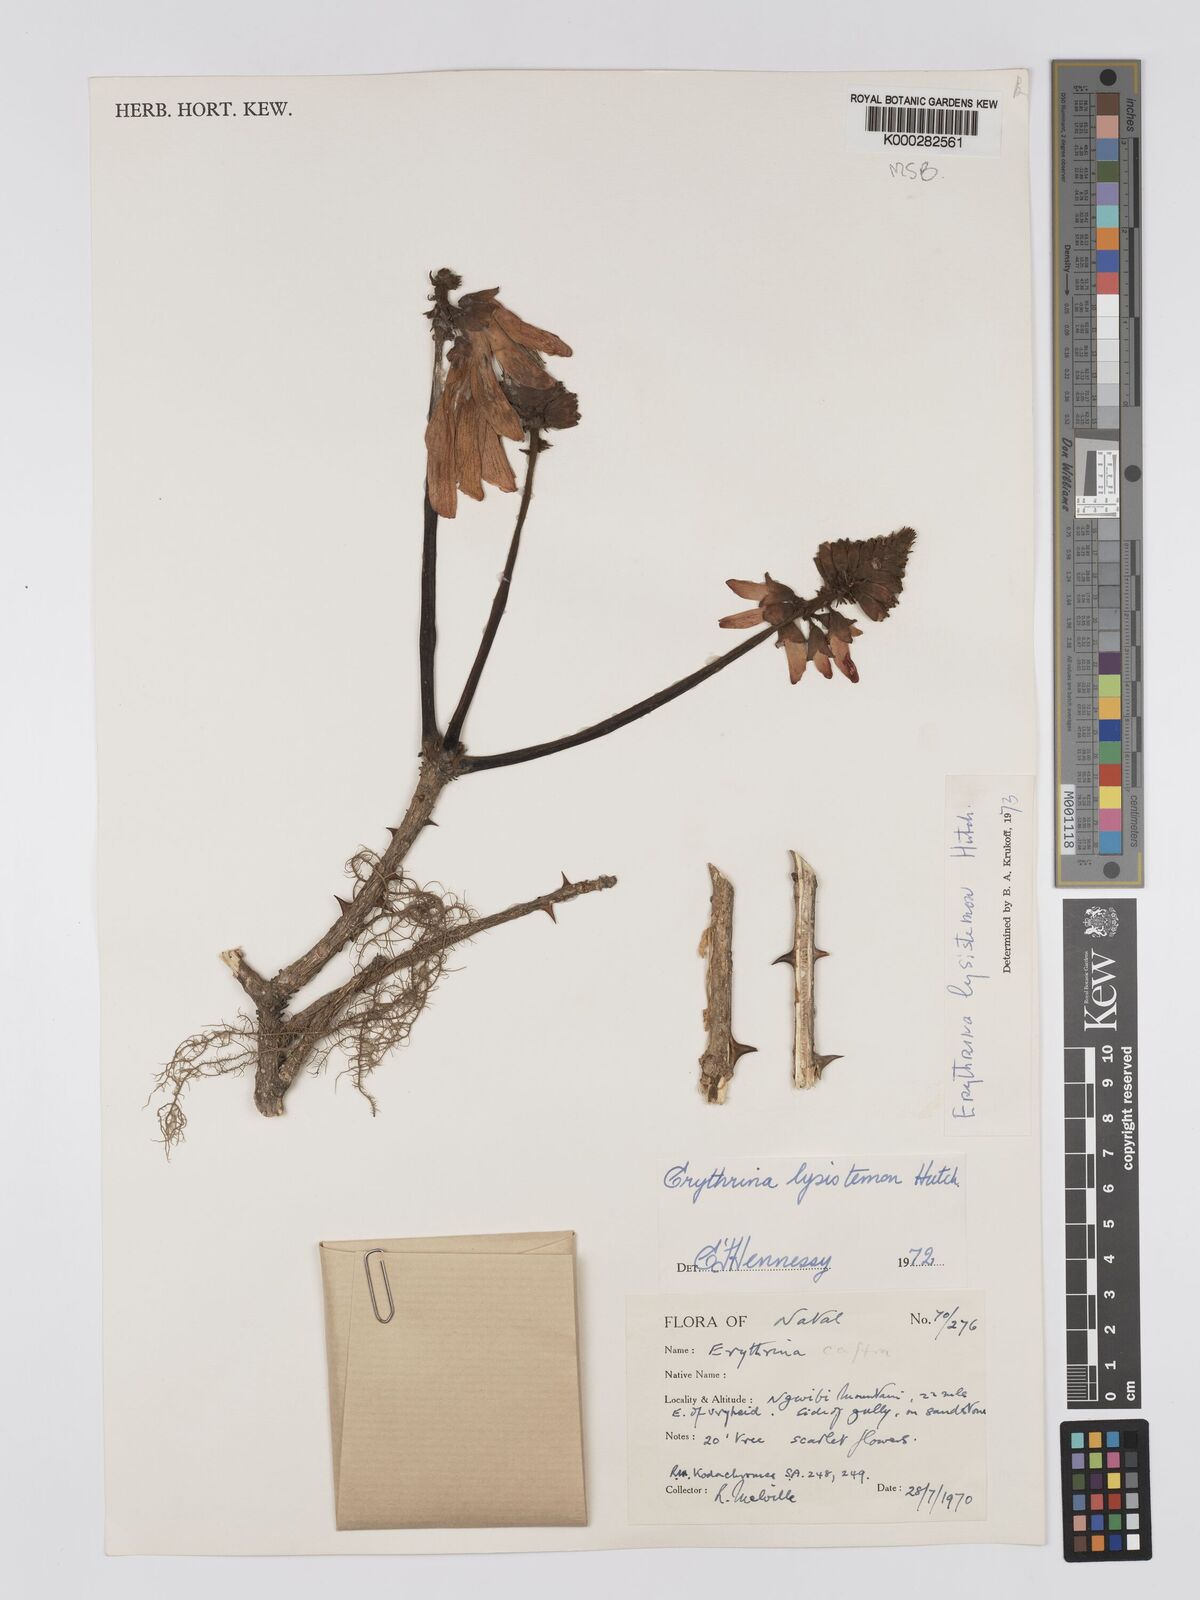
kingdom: Plantae
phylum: Tracheophyta
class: Magnoliopsida
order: Fabales
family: Fabaceae
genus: Erythrina
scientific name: Erythrina lysistemon
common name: Common coral tree
